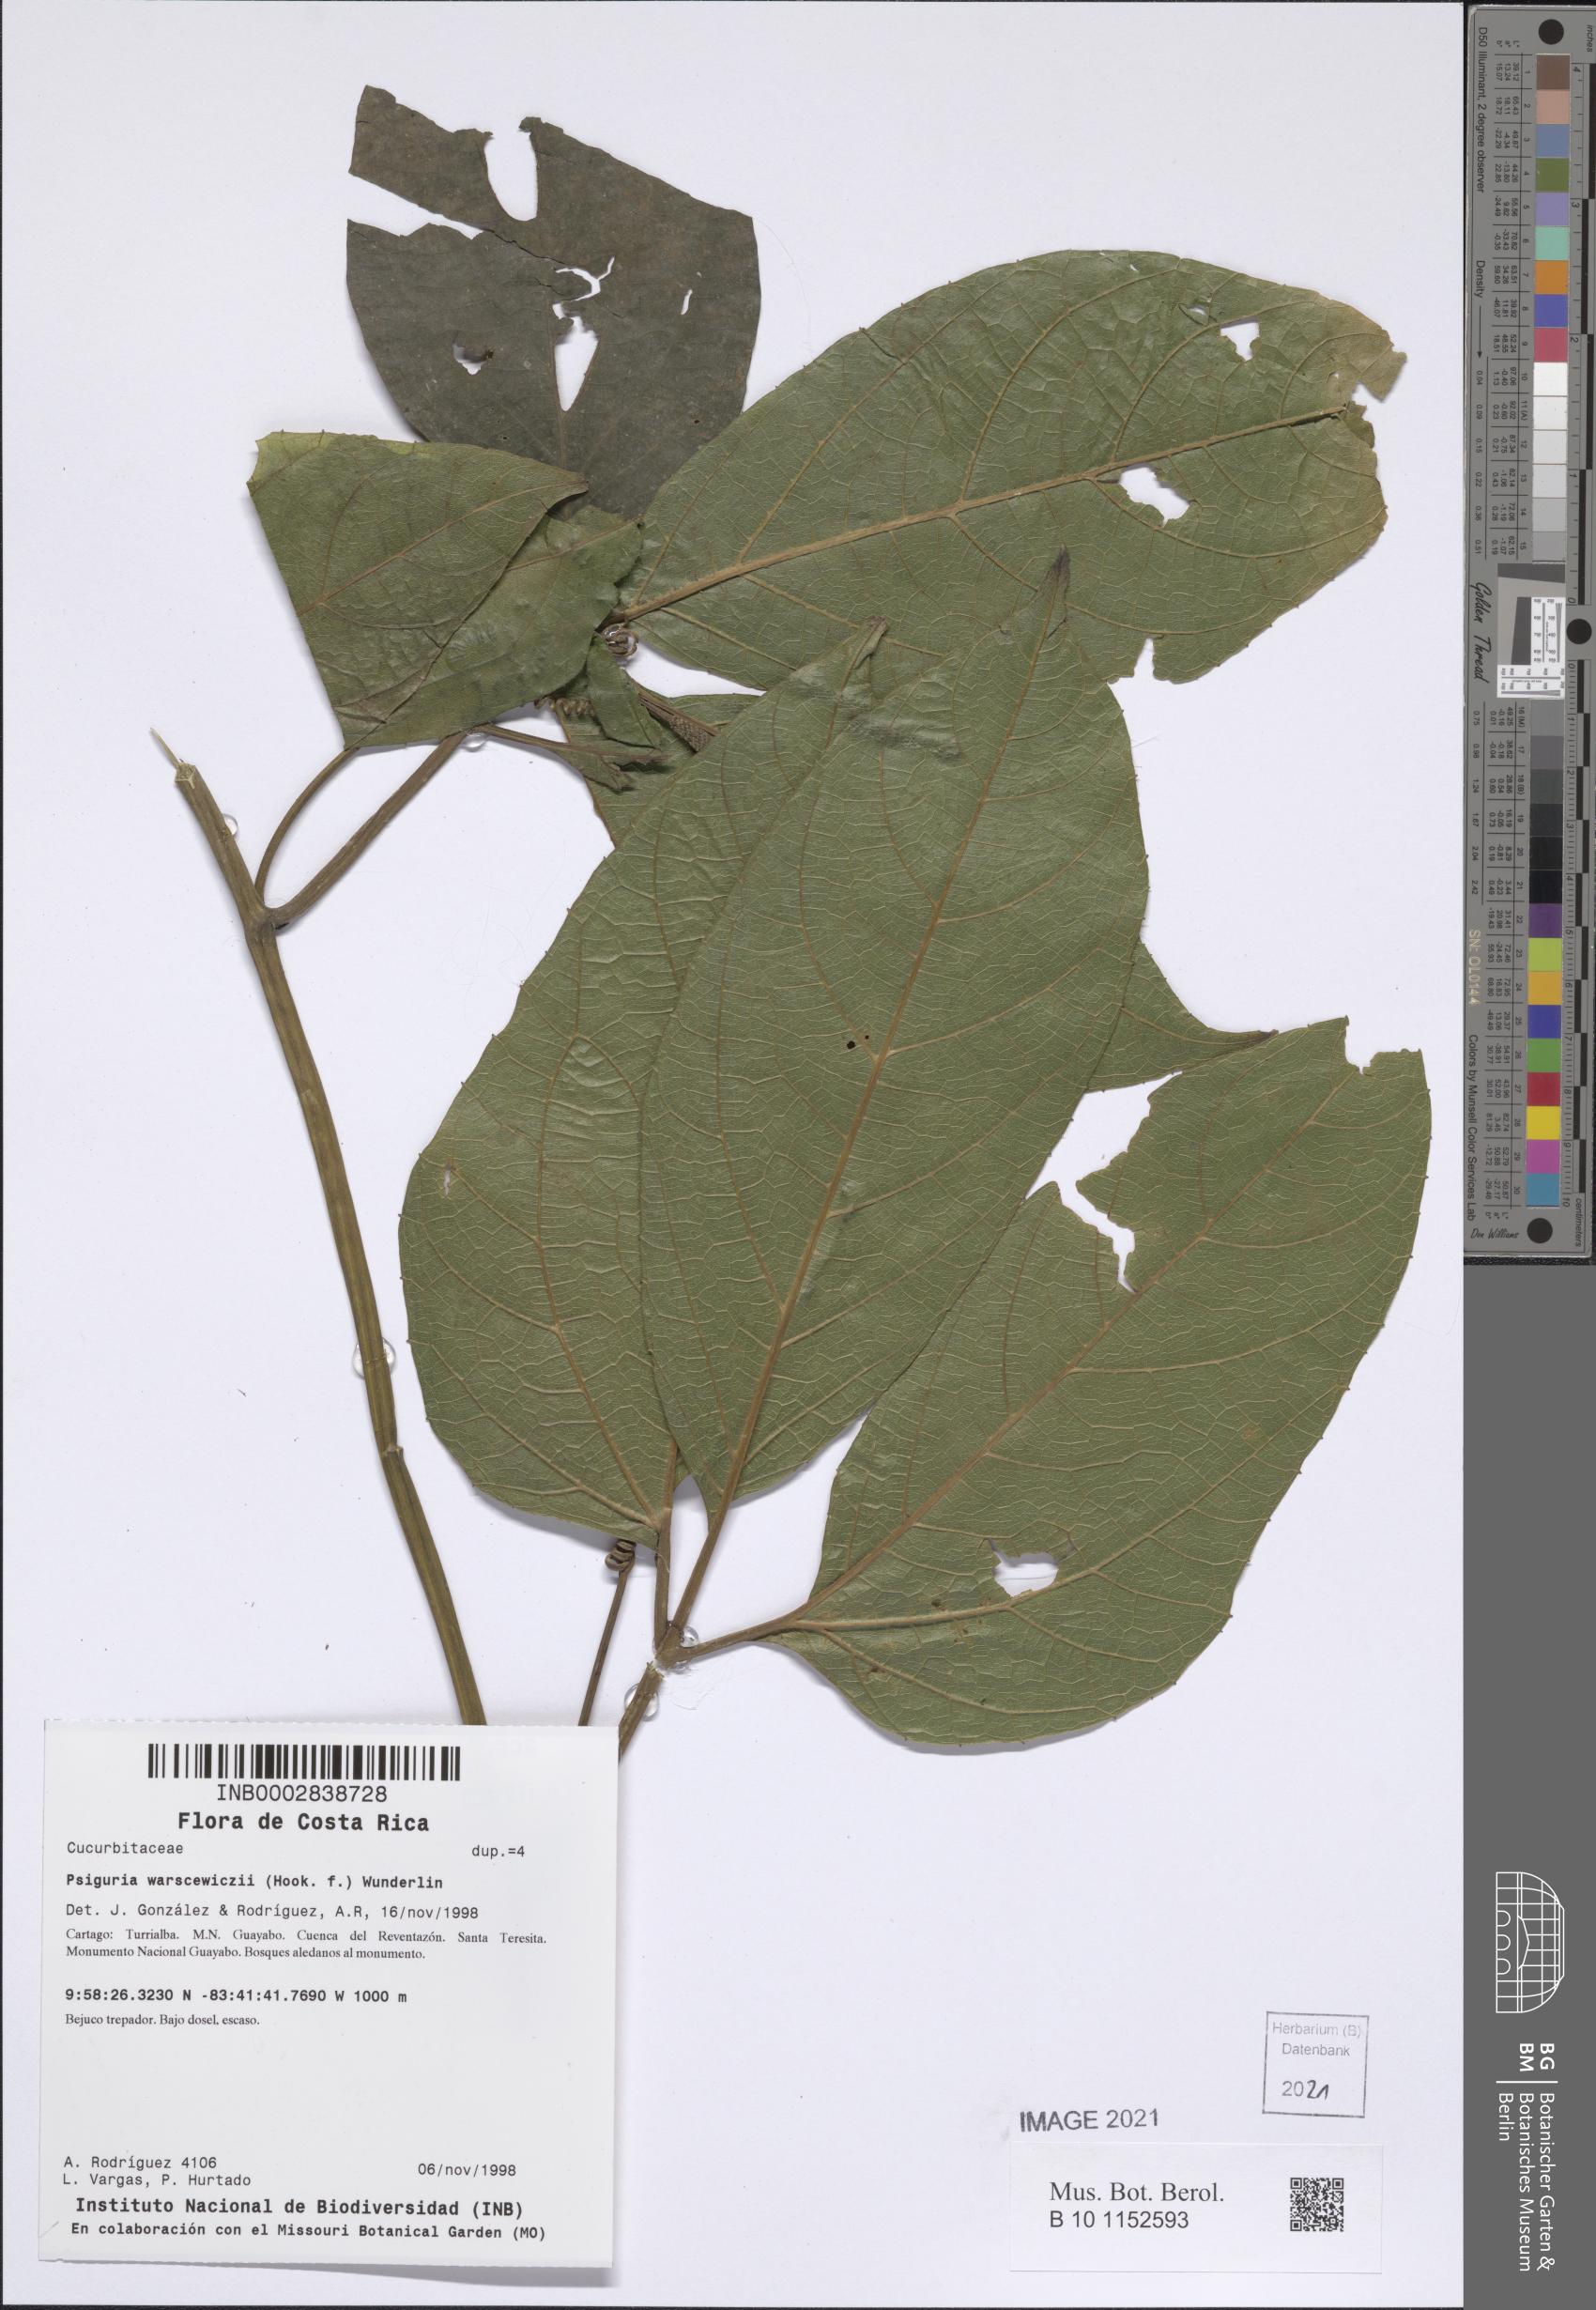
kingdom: Plantae
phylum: Tracheophyta
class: Magnoliopsida
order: Cucurbitales
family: Cucurbitaceae
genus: Psiguria
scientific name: Psiguria warscewiczii
